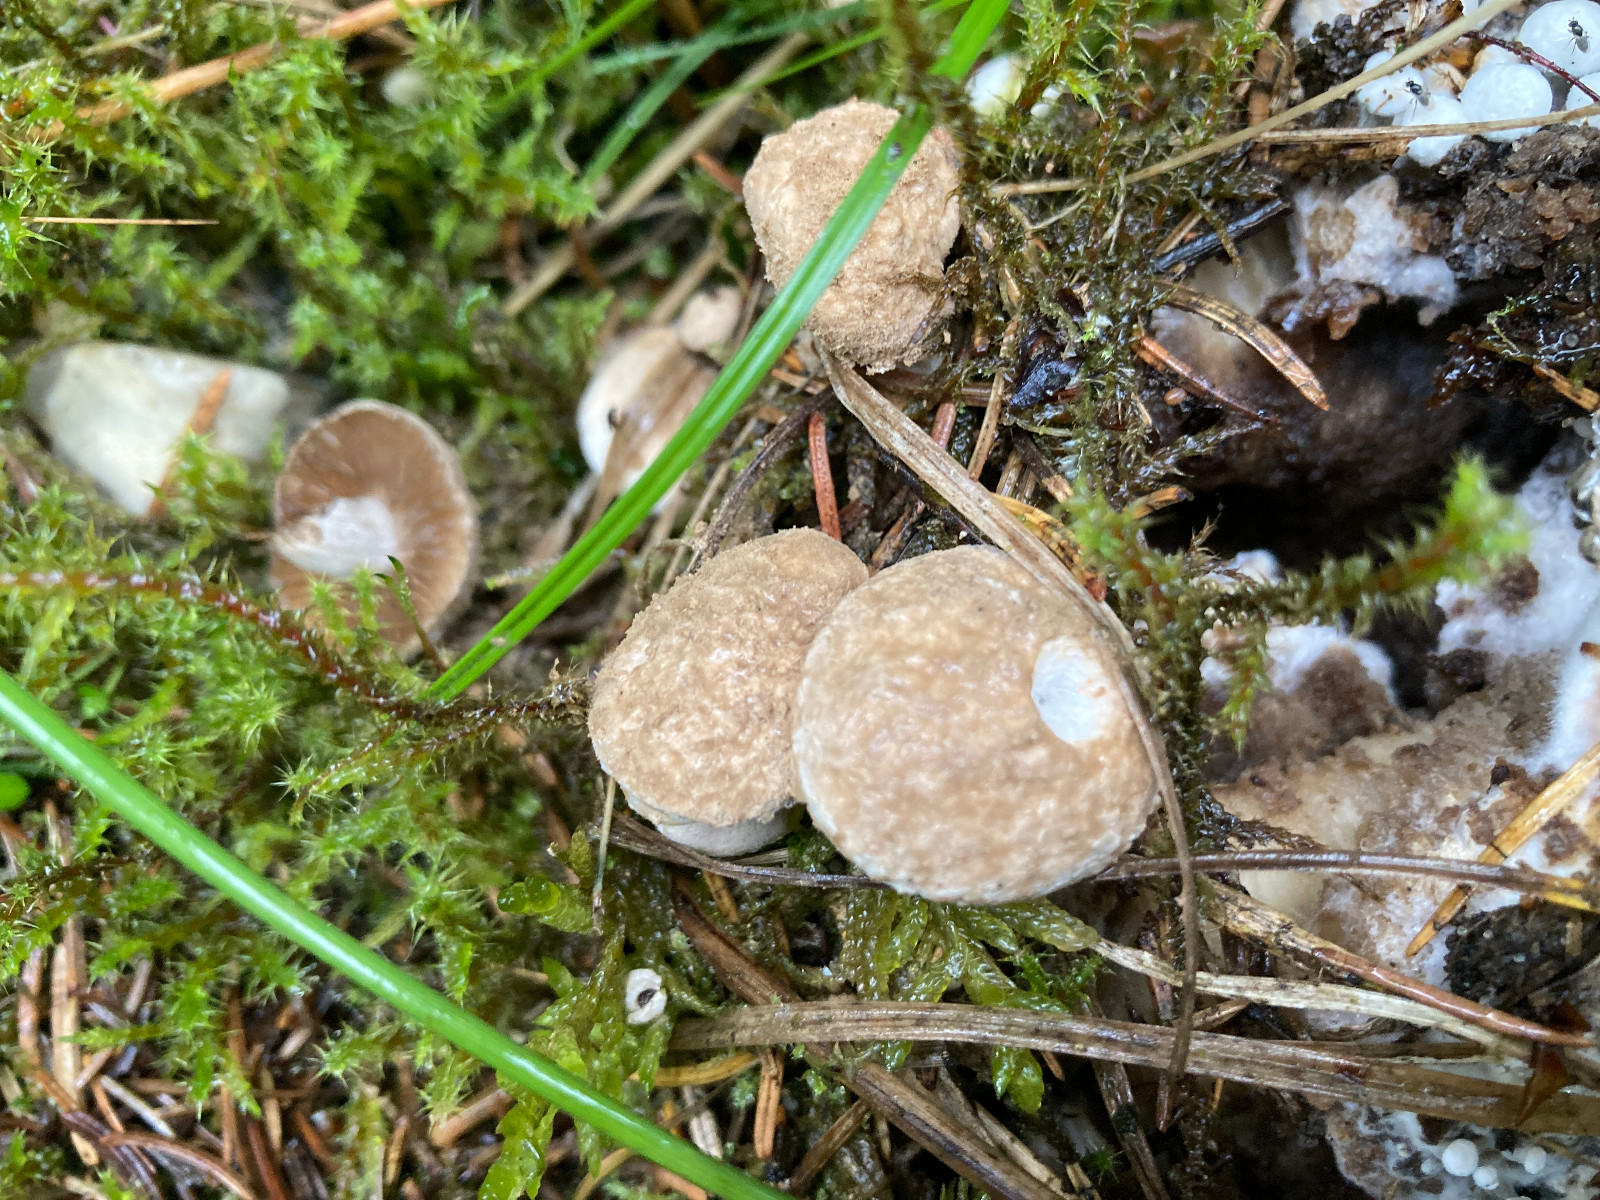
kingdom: Fungi
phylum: Basidiomycota
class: Agaricomycetes
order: Agaricales
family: Lyophyllaceae
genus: Asterophora
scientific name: Asterophora lycoperdoides
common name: brunpudret snyltehat
